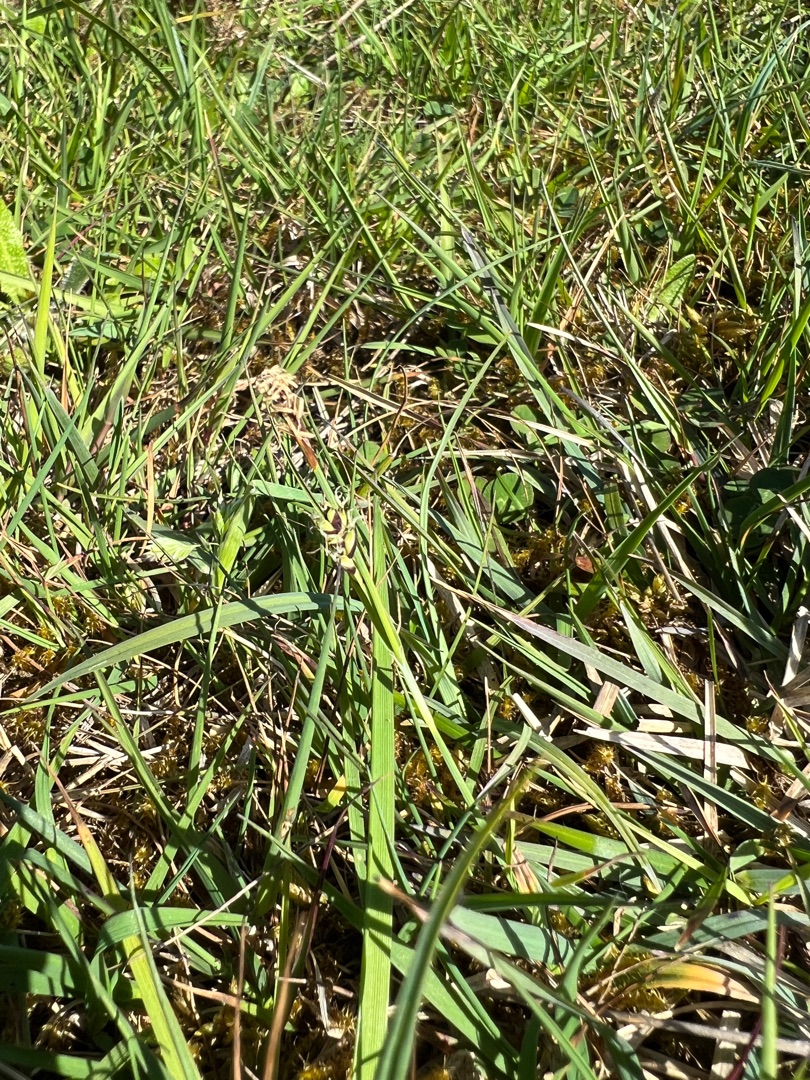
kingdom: Plantae
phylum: Tracheophyta
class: Liliopsida
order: Poales
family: Cyperaceae
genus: Carex
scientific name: Carex panicea
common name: Hirse-star
